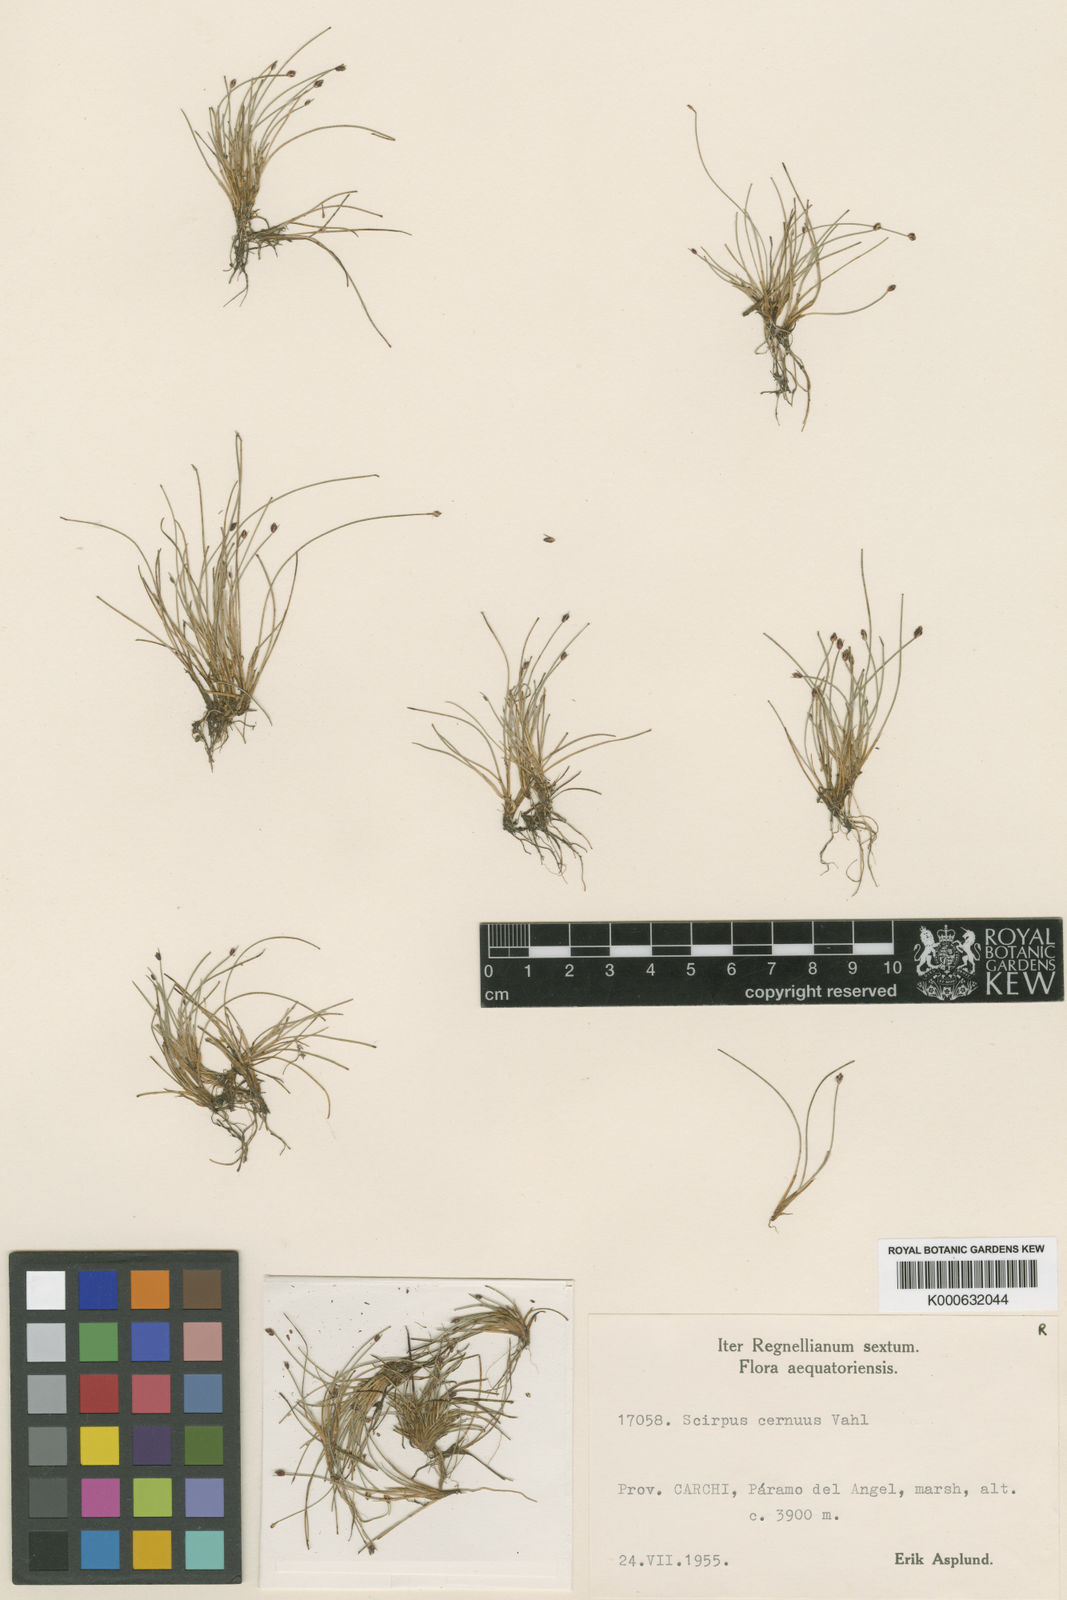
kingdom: Plantae
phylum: Tracheophyta
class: Liliopsida
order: Poales
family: Cyperaceae
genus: Isolepis
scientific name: Isolepis cernua
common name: Slender club-rush
